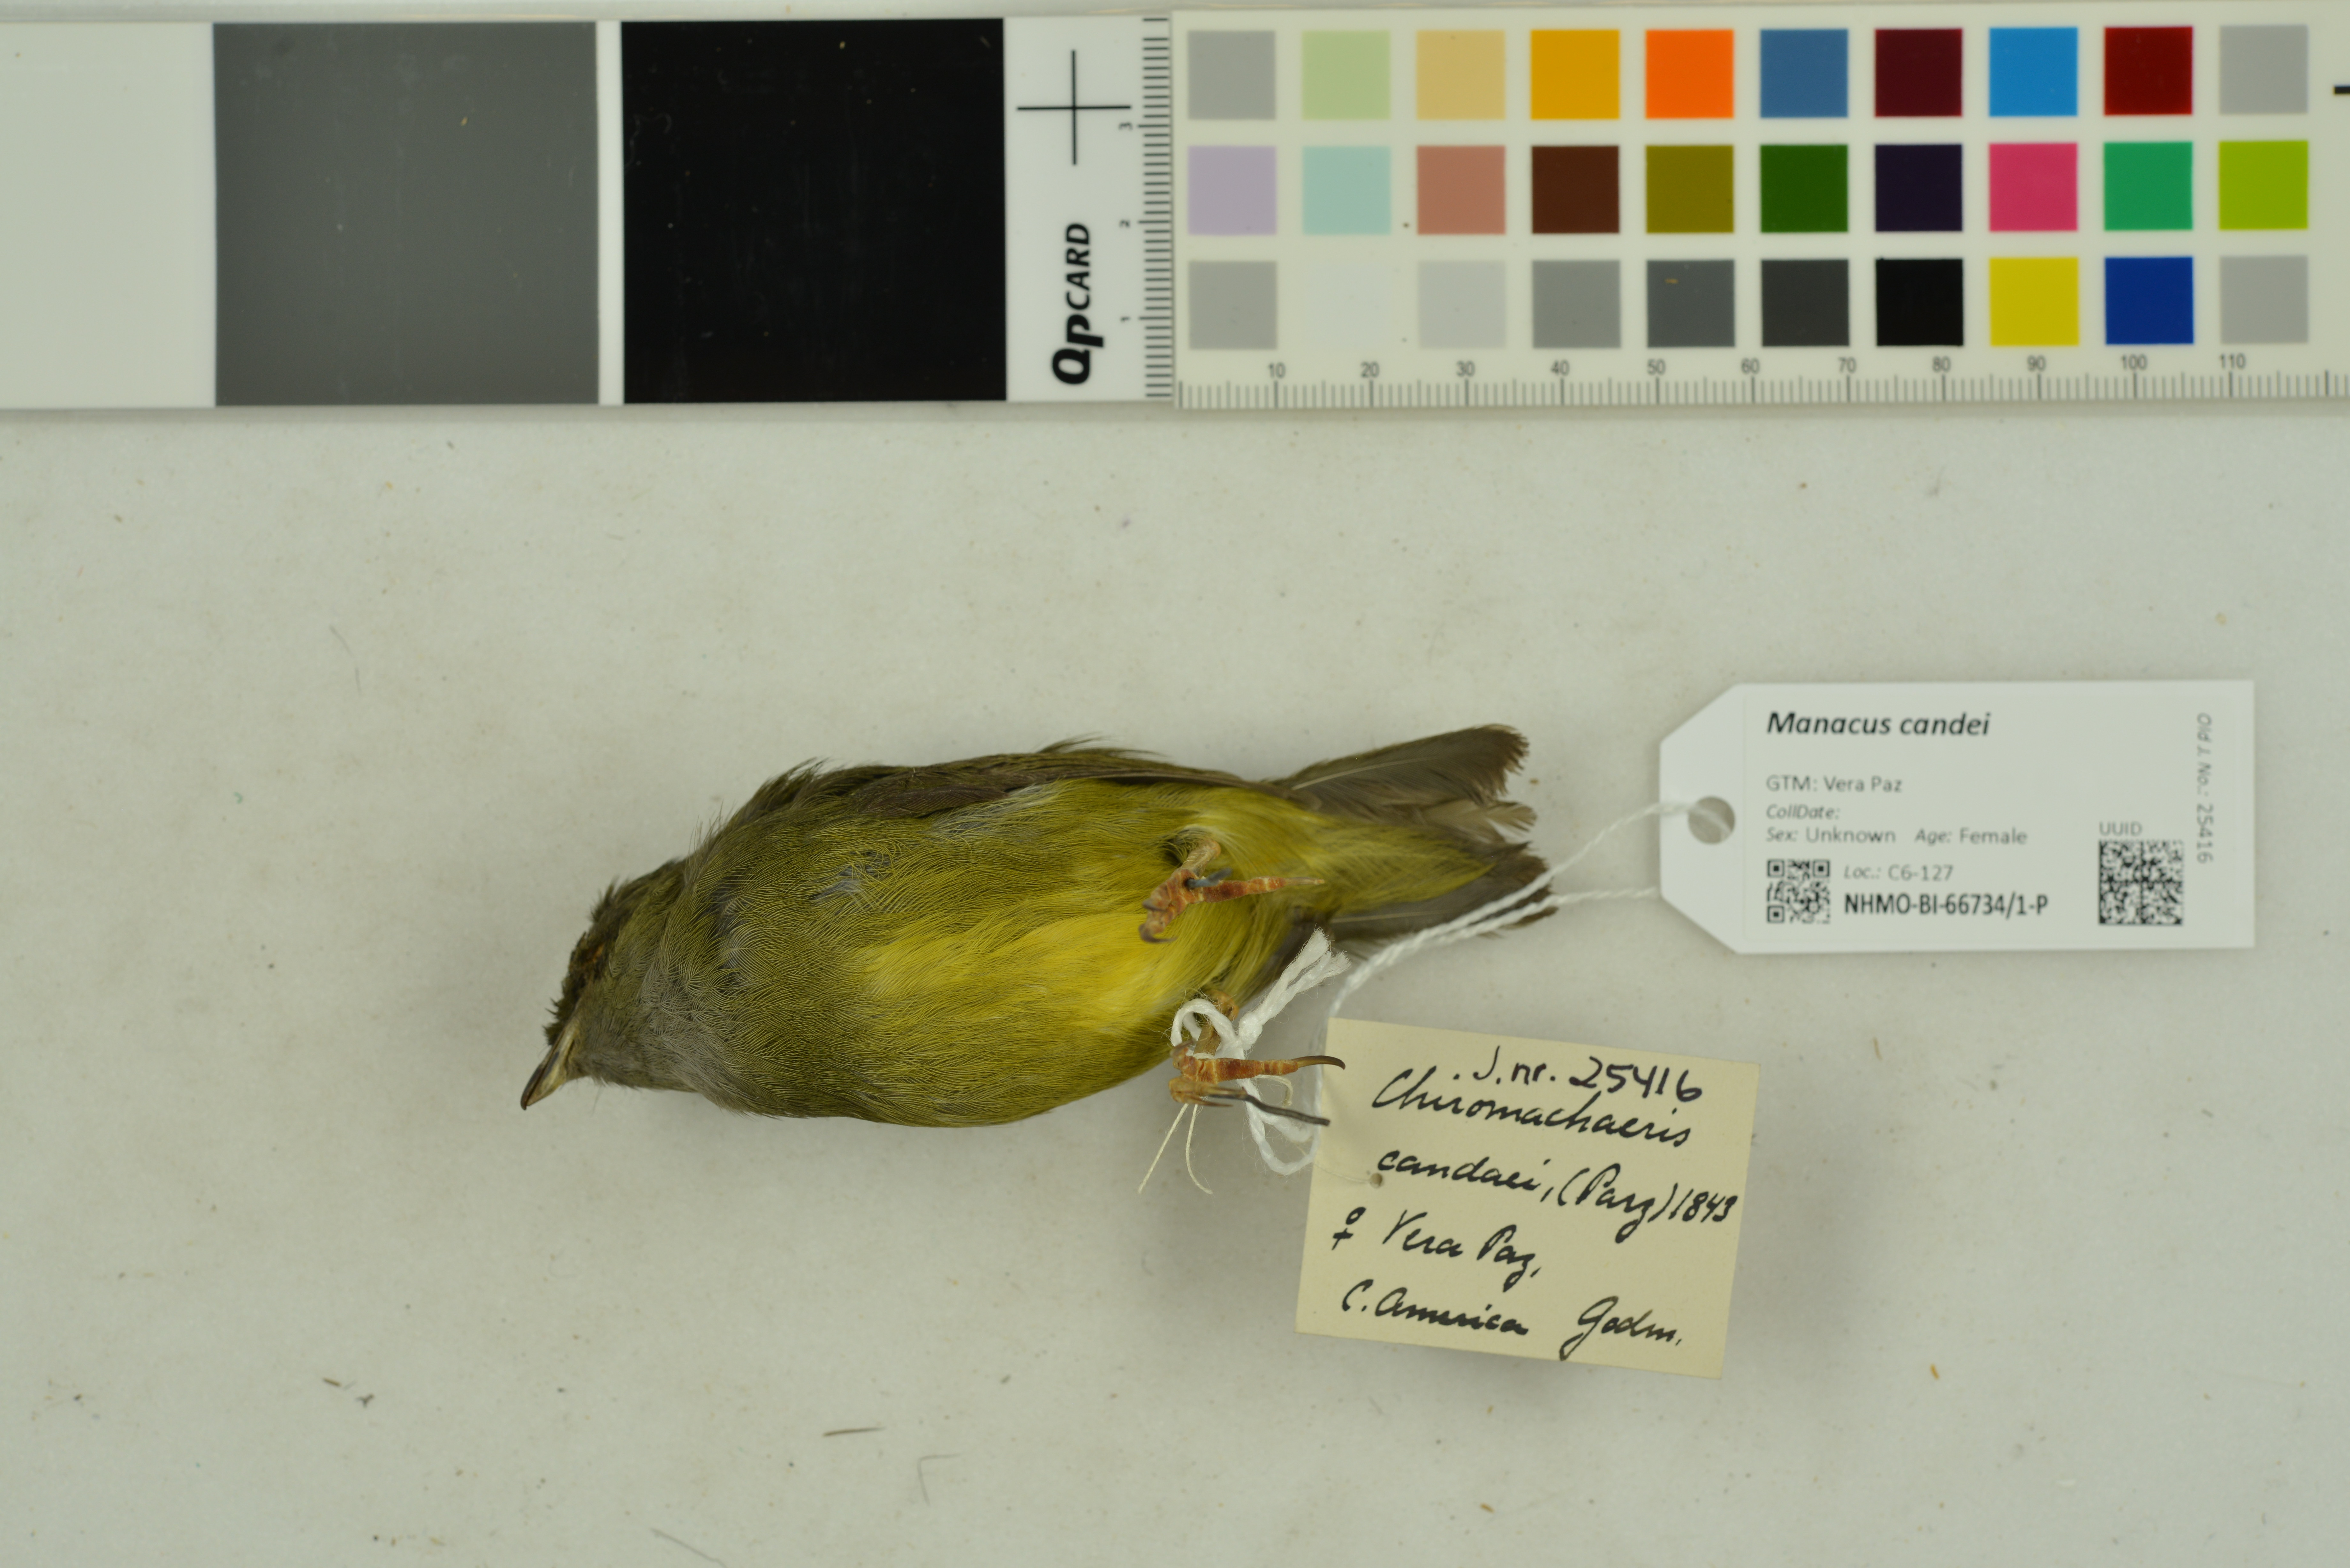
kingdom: Animalia
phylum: Chordata
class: Aves
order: Passeriformes
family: Pipridae
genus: Manacus
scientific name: Manacus candei
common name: White-collared manakin
